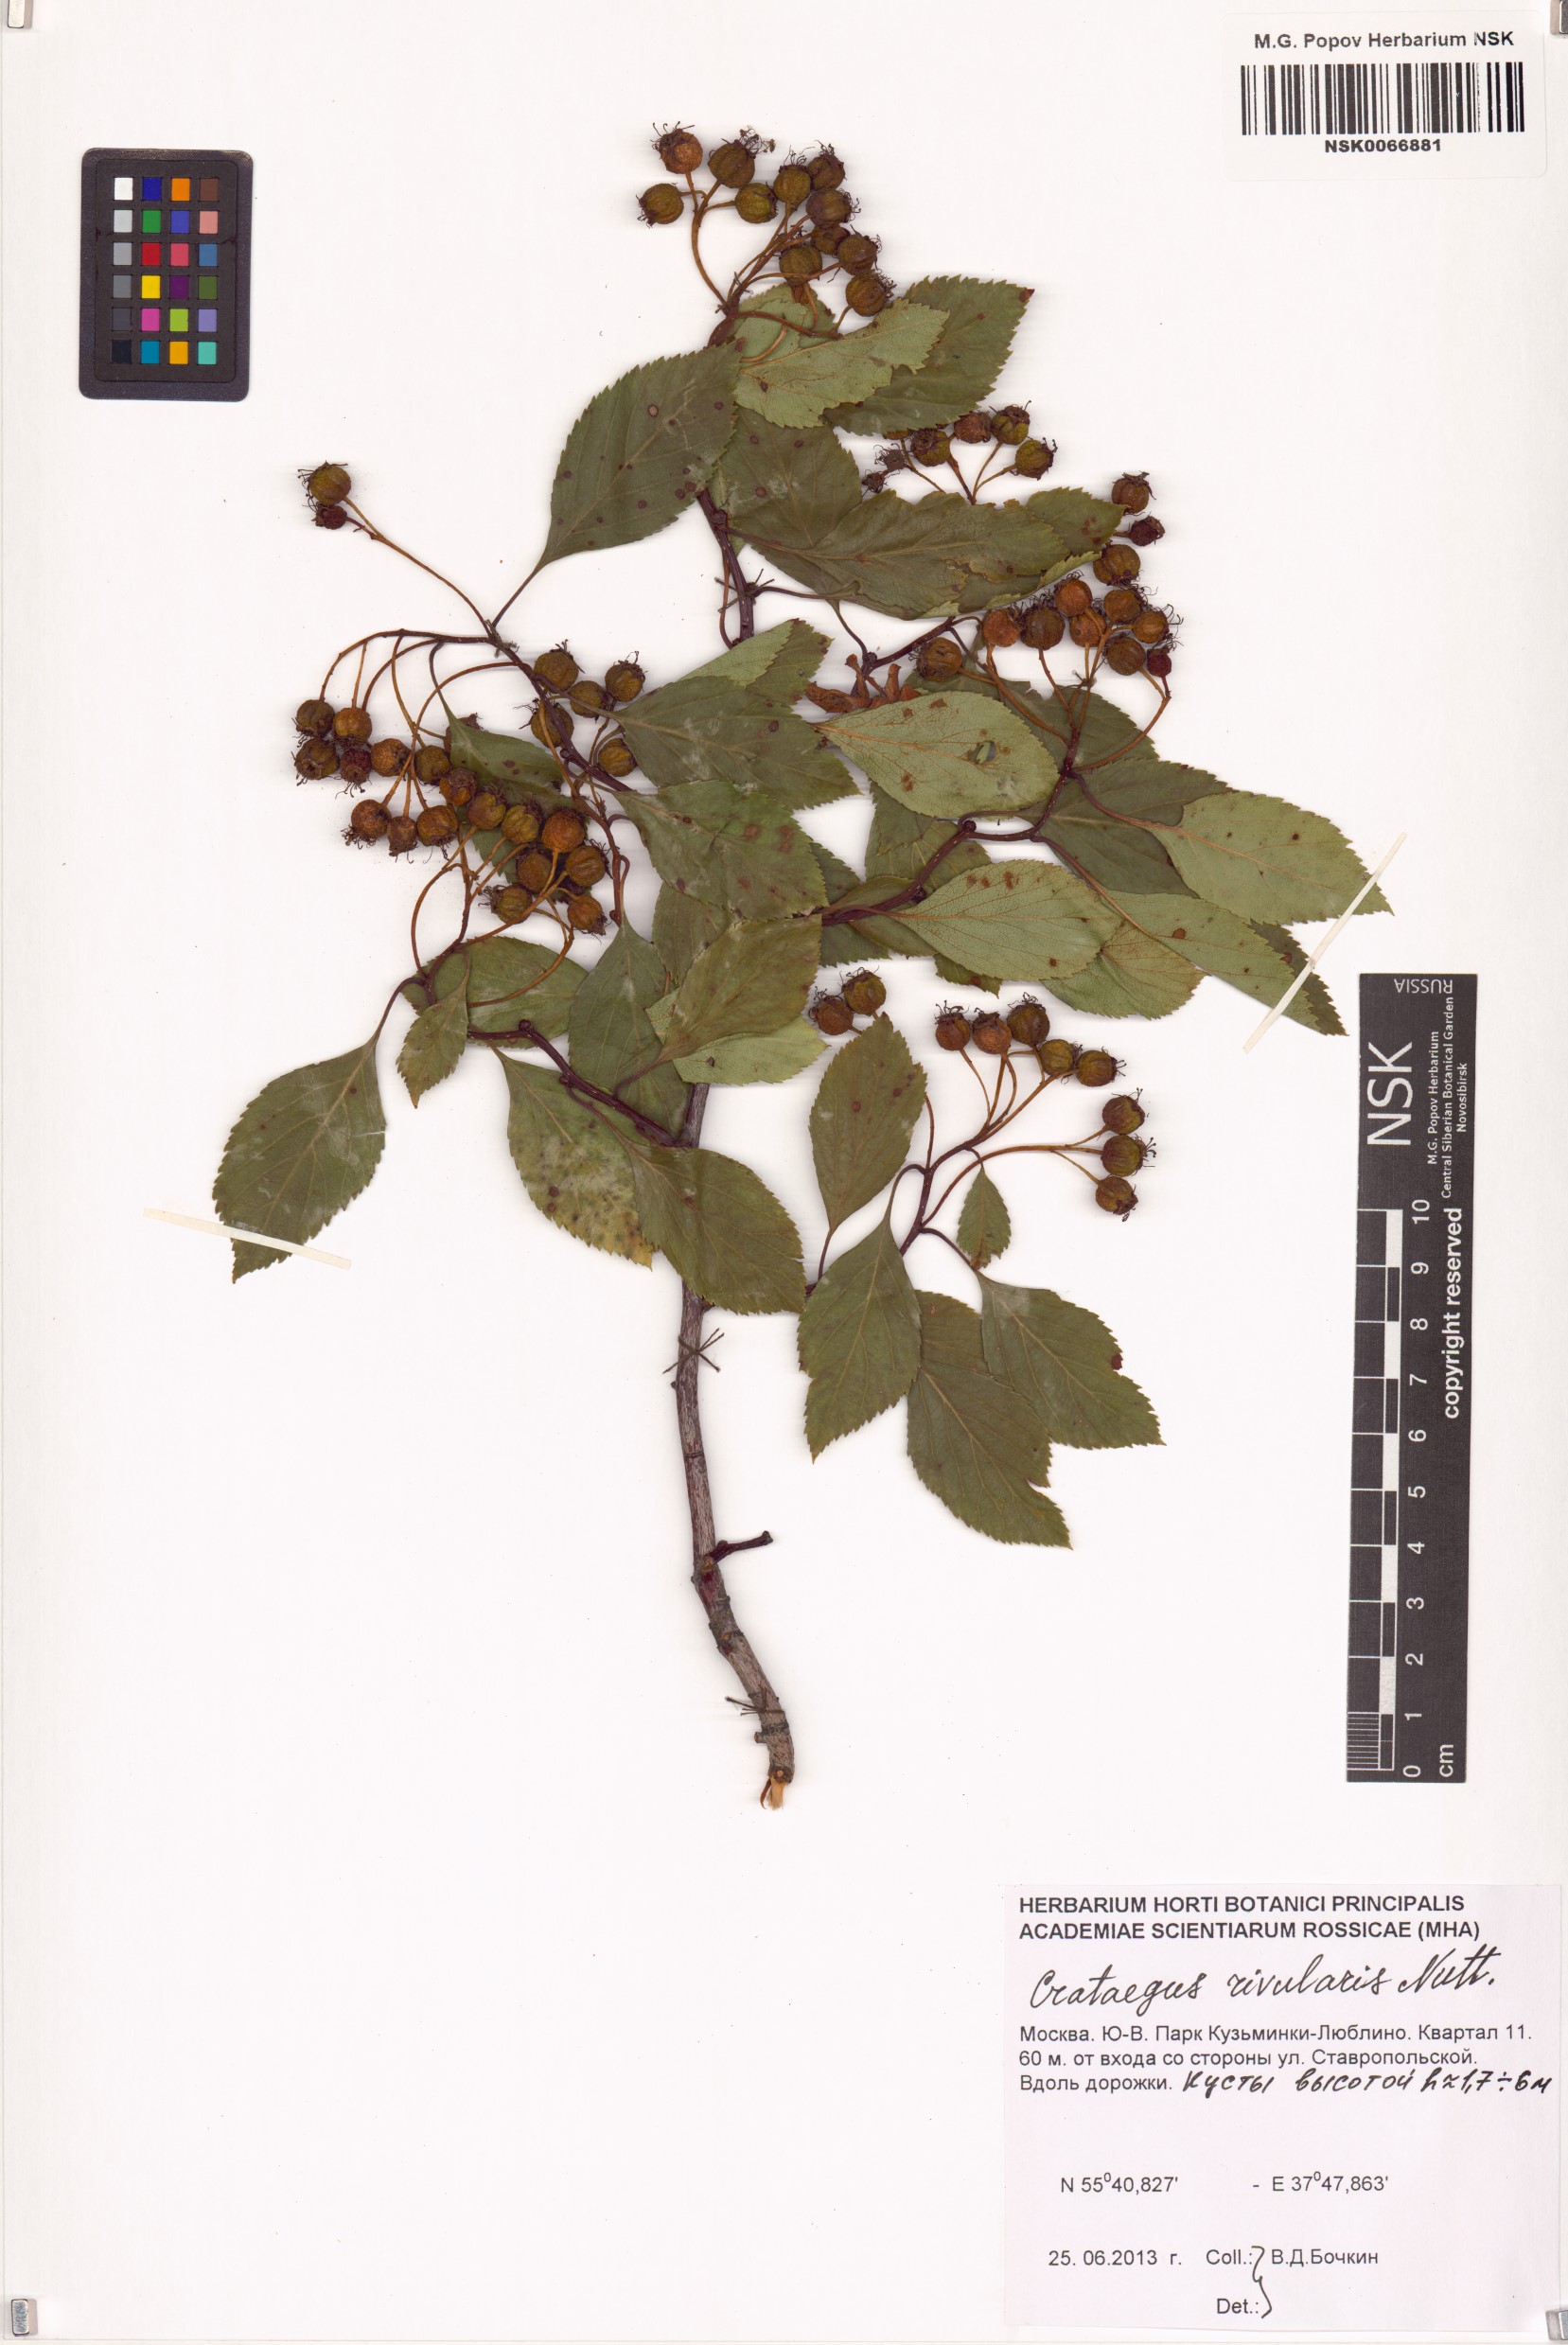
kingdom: Plantae
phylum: Tracheophyta
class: Magnoliopsida
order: Rosales
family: Rosaceae
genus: Crataegus
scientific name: Crataegus rivularis
